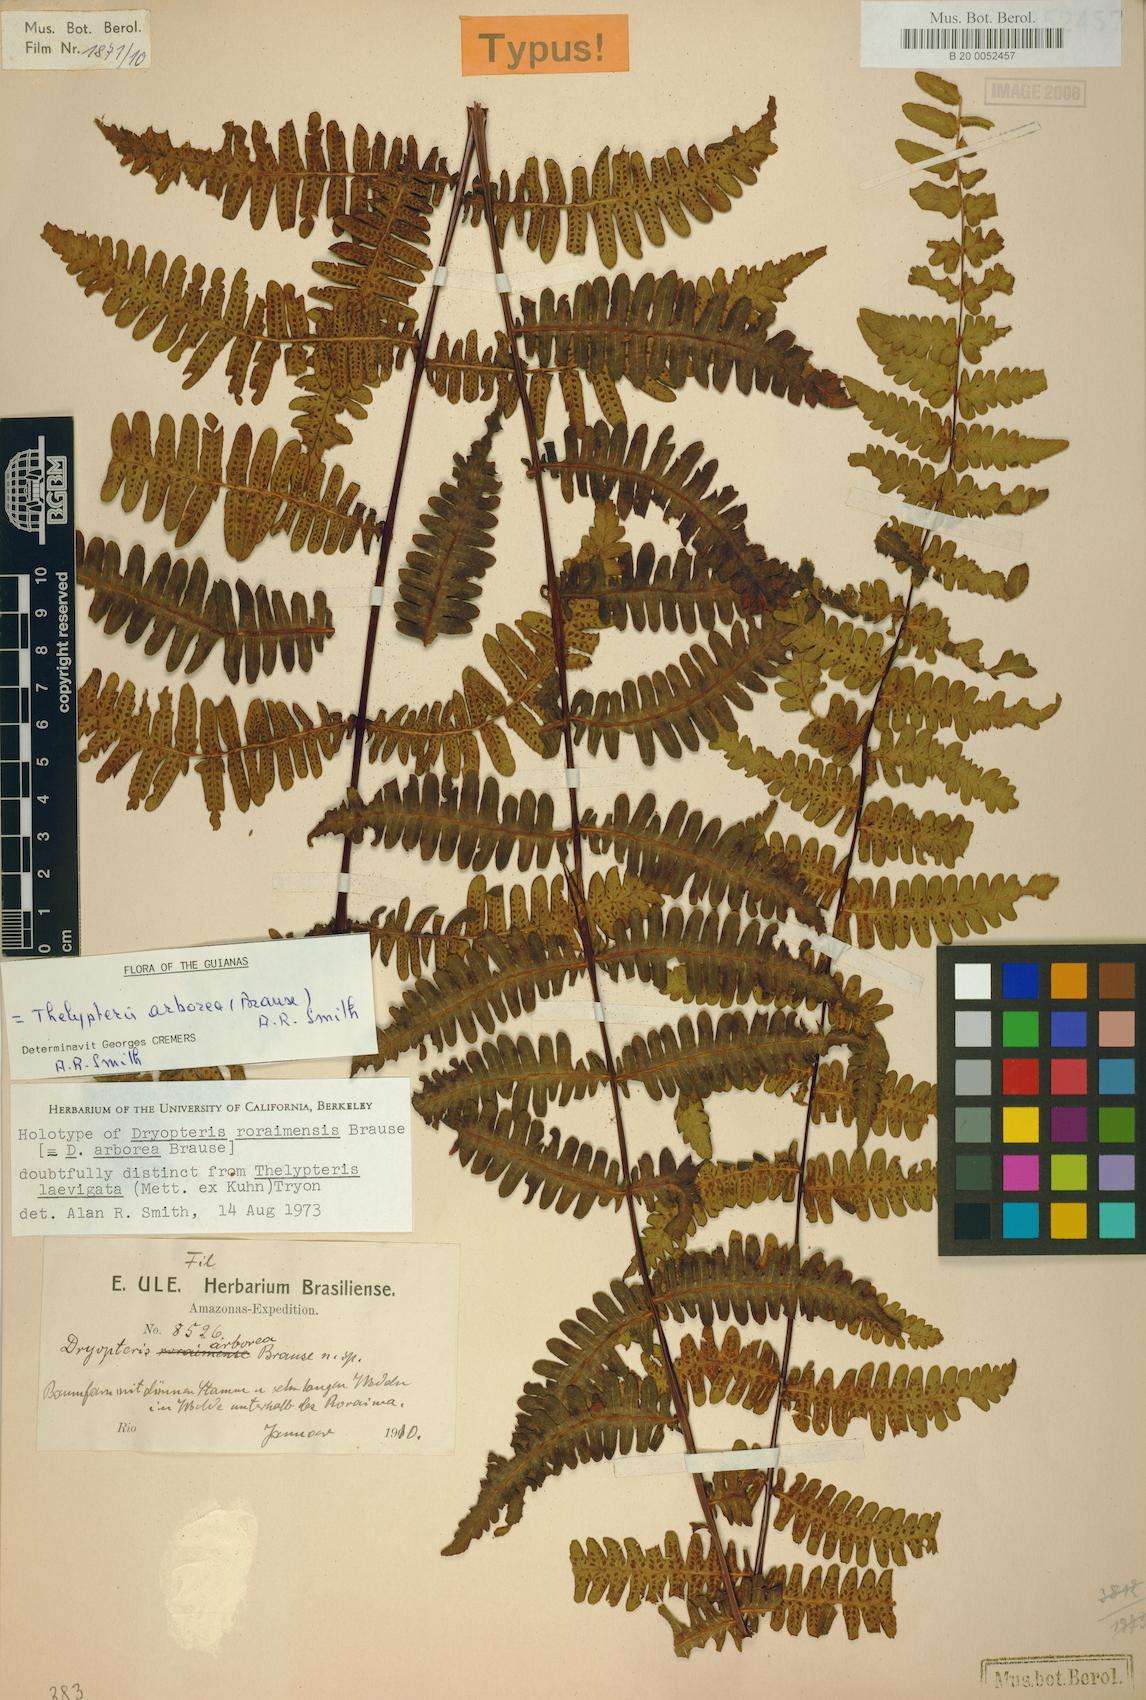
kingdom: Plantae
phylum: Tracheophyta
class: Polypodiopsida
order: Polypodiales
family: Thelypteridaceae
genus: Amauropelta
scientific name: Amauropelta arborea
